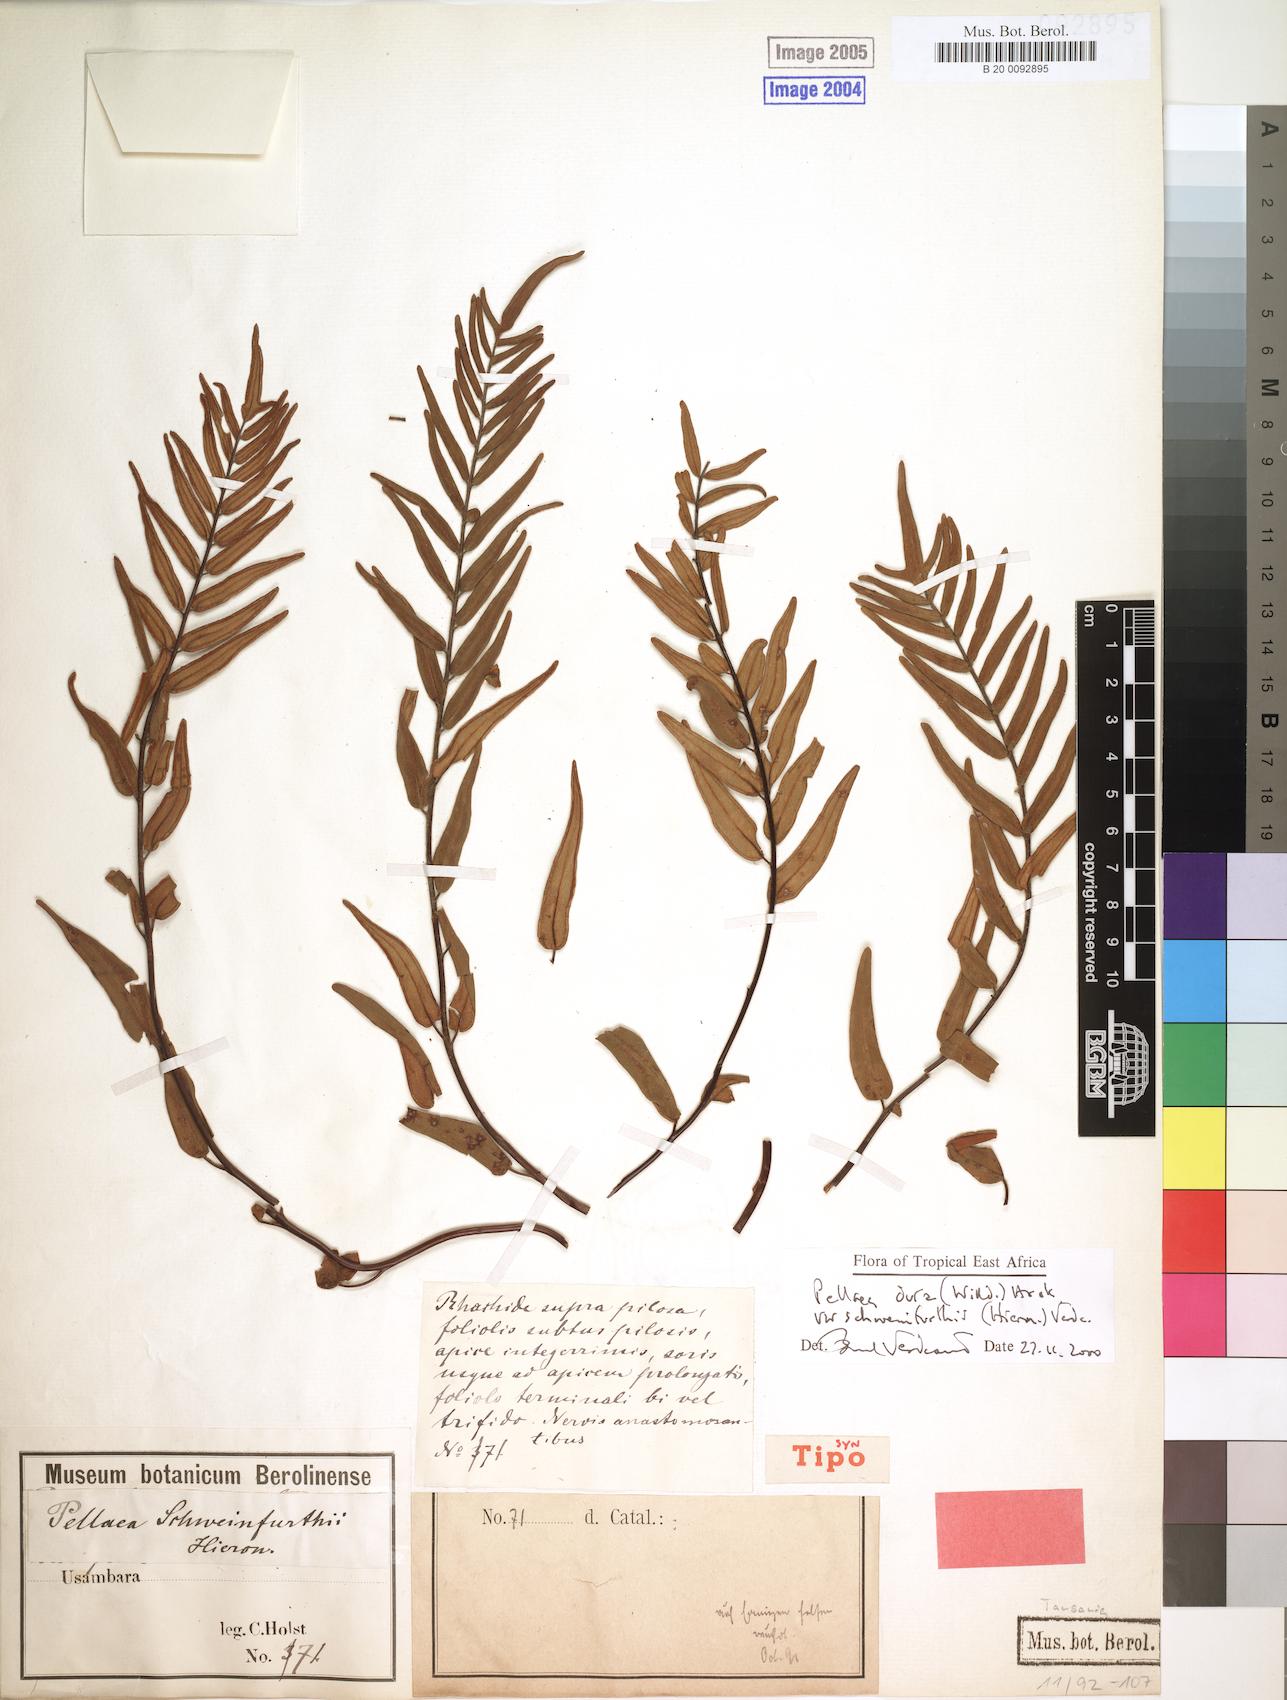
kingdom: Plantae
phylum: Tracheophyta
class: Polypodiopsida
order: Polypodiales
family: Pteridaceae
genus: Pellaea
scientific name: Pellaea dura
